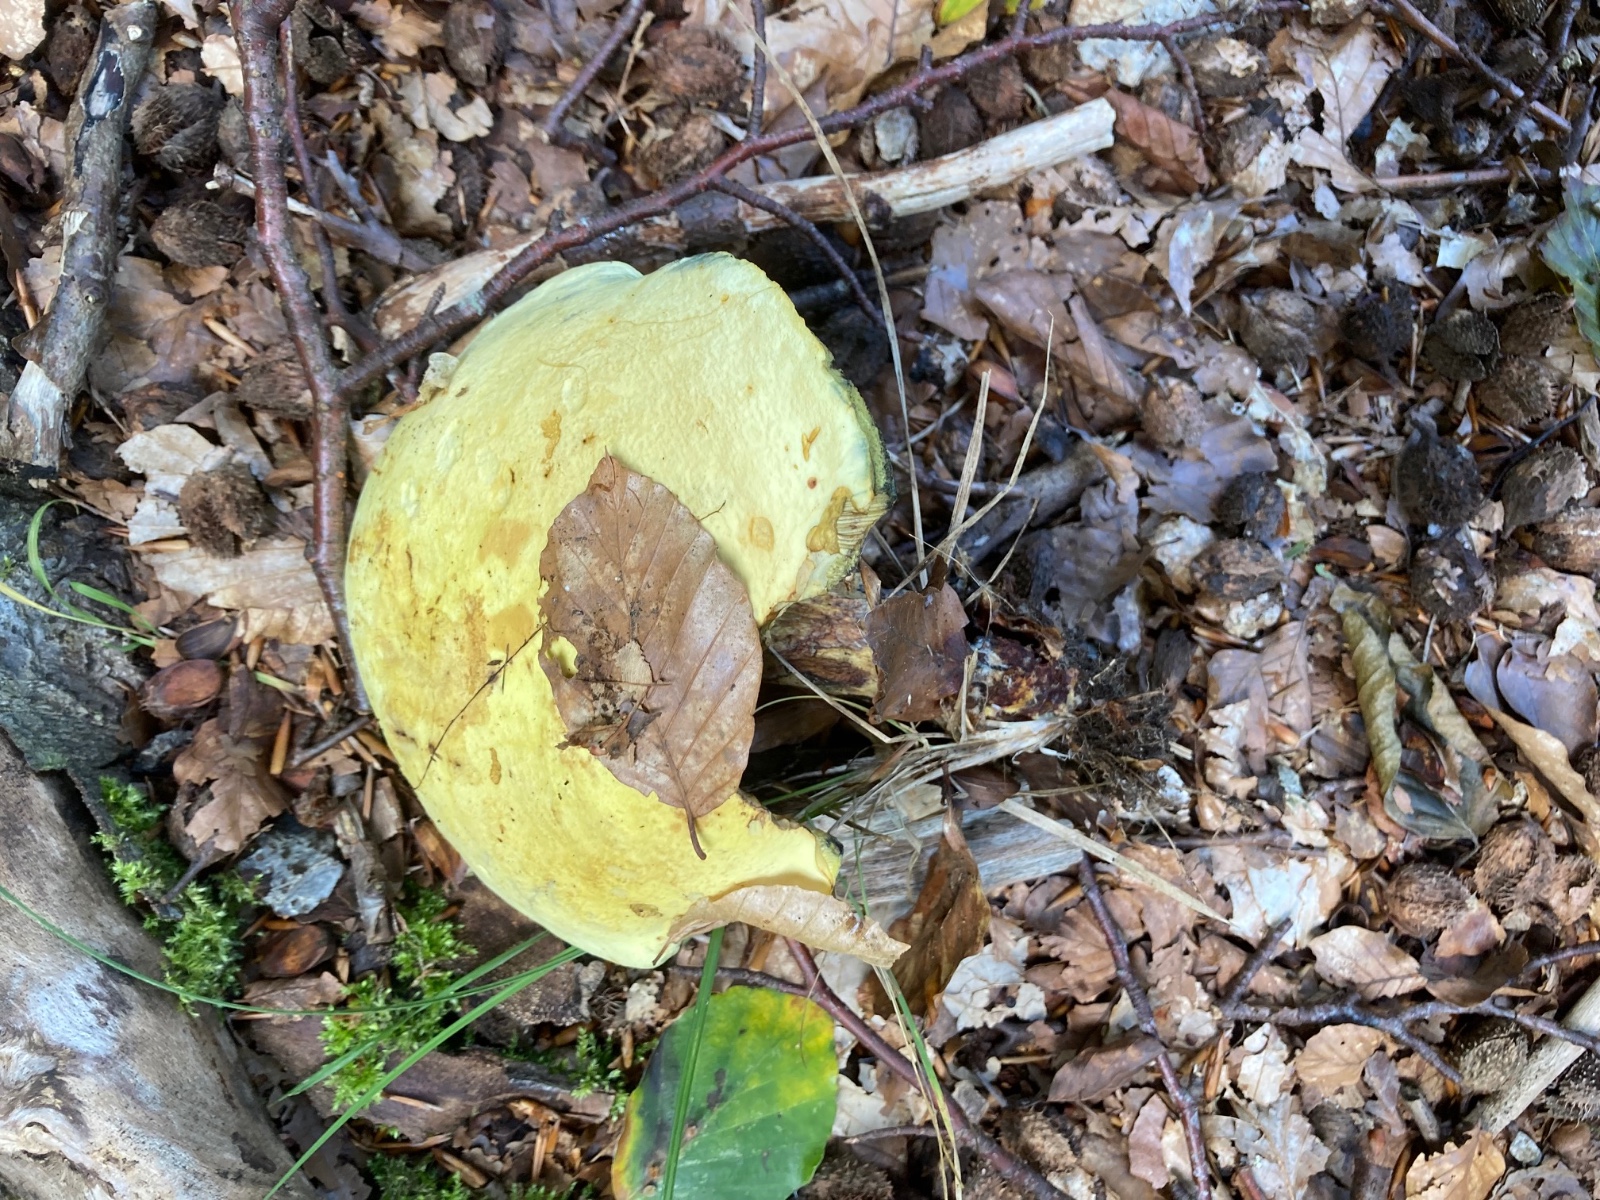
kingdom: Fungi
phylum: Basidiomycota
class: Agaricomycetes
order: Boletales
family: Boletaceae
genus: Neoboletus
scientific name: Neoboletus praestigiator
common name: gul indigorørhat
